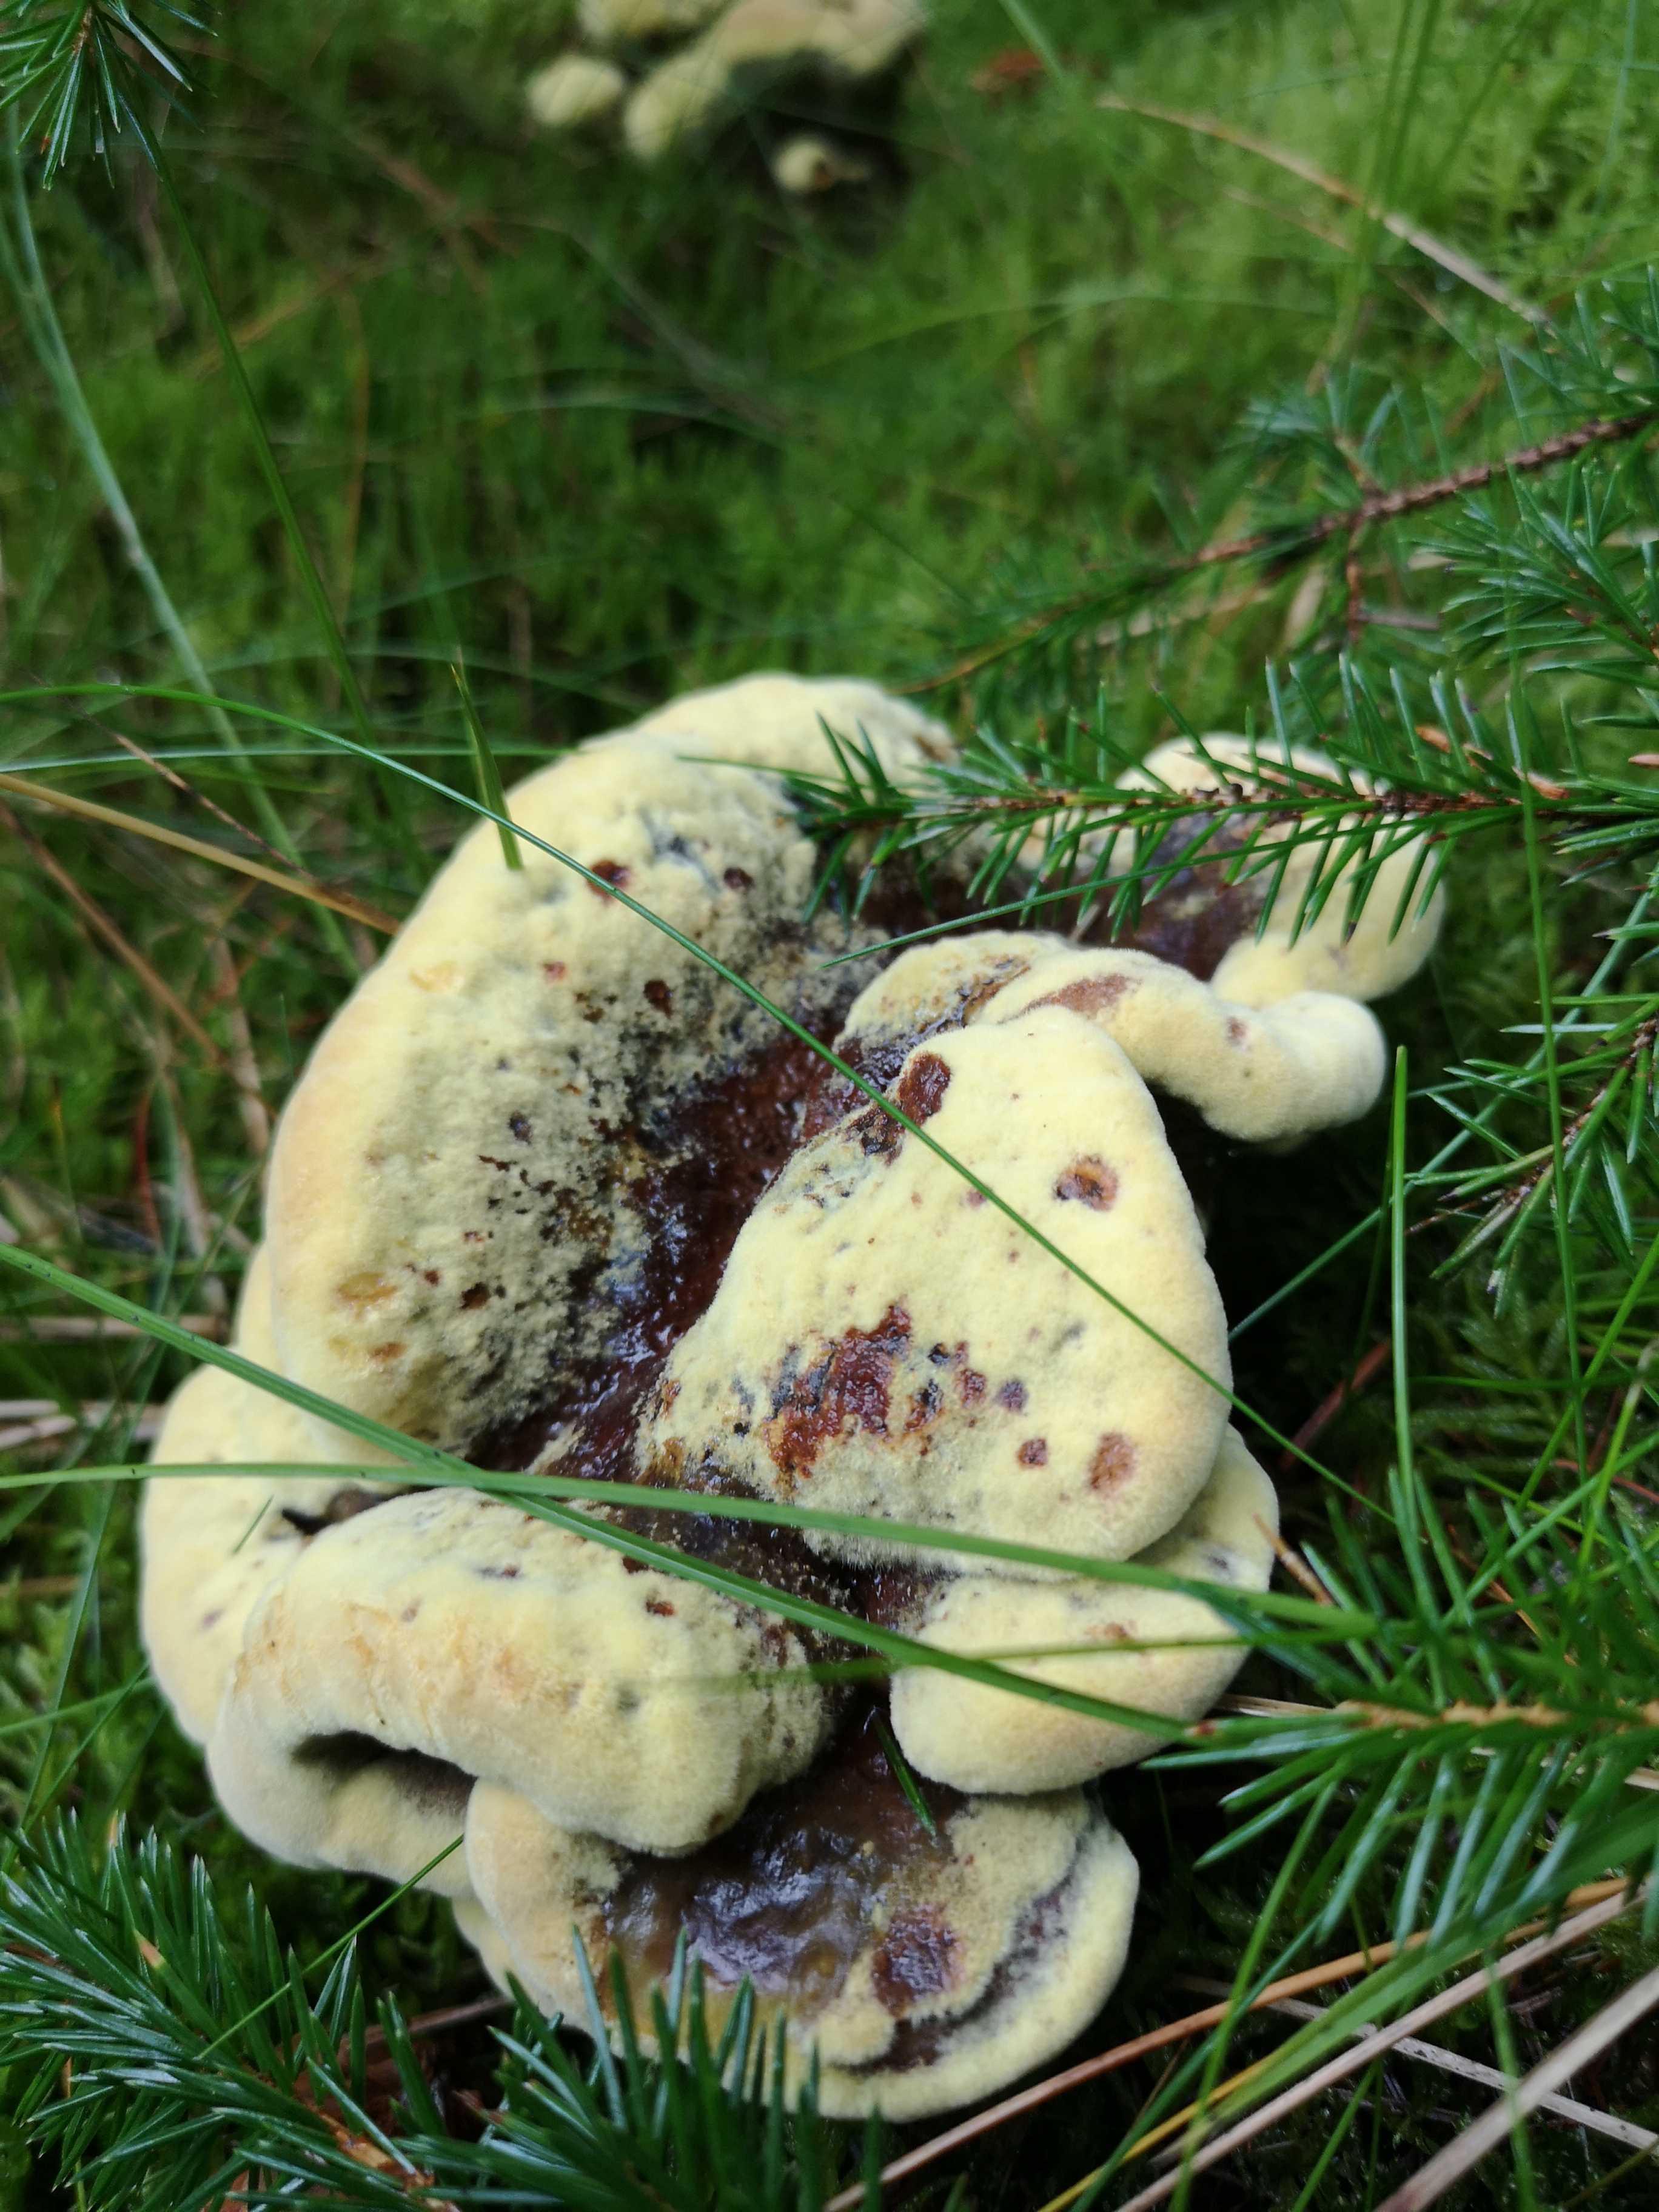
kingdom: Fungi
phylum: Basidiomycota
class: Agaricomycetes
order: Polyporales
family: Laetiporaceae
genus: Phaeolus
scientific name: Phaeolus schweinitzii
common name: brunporesvamp
